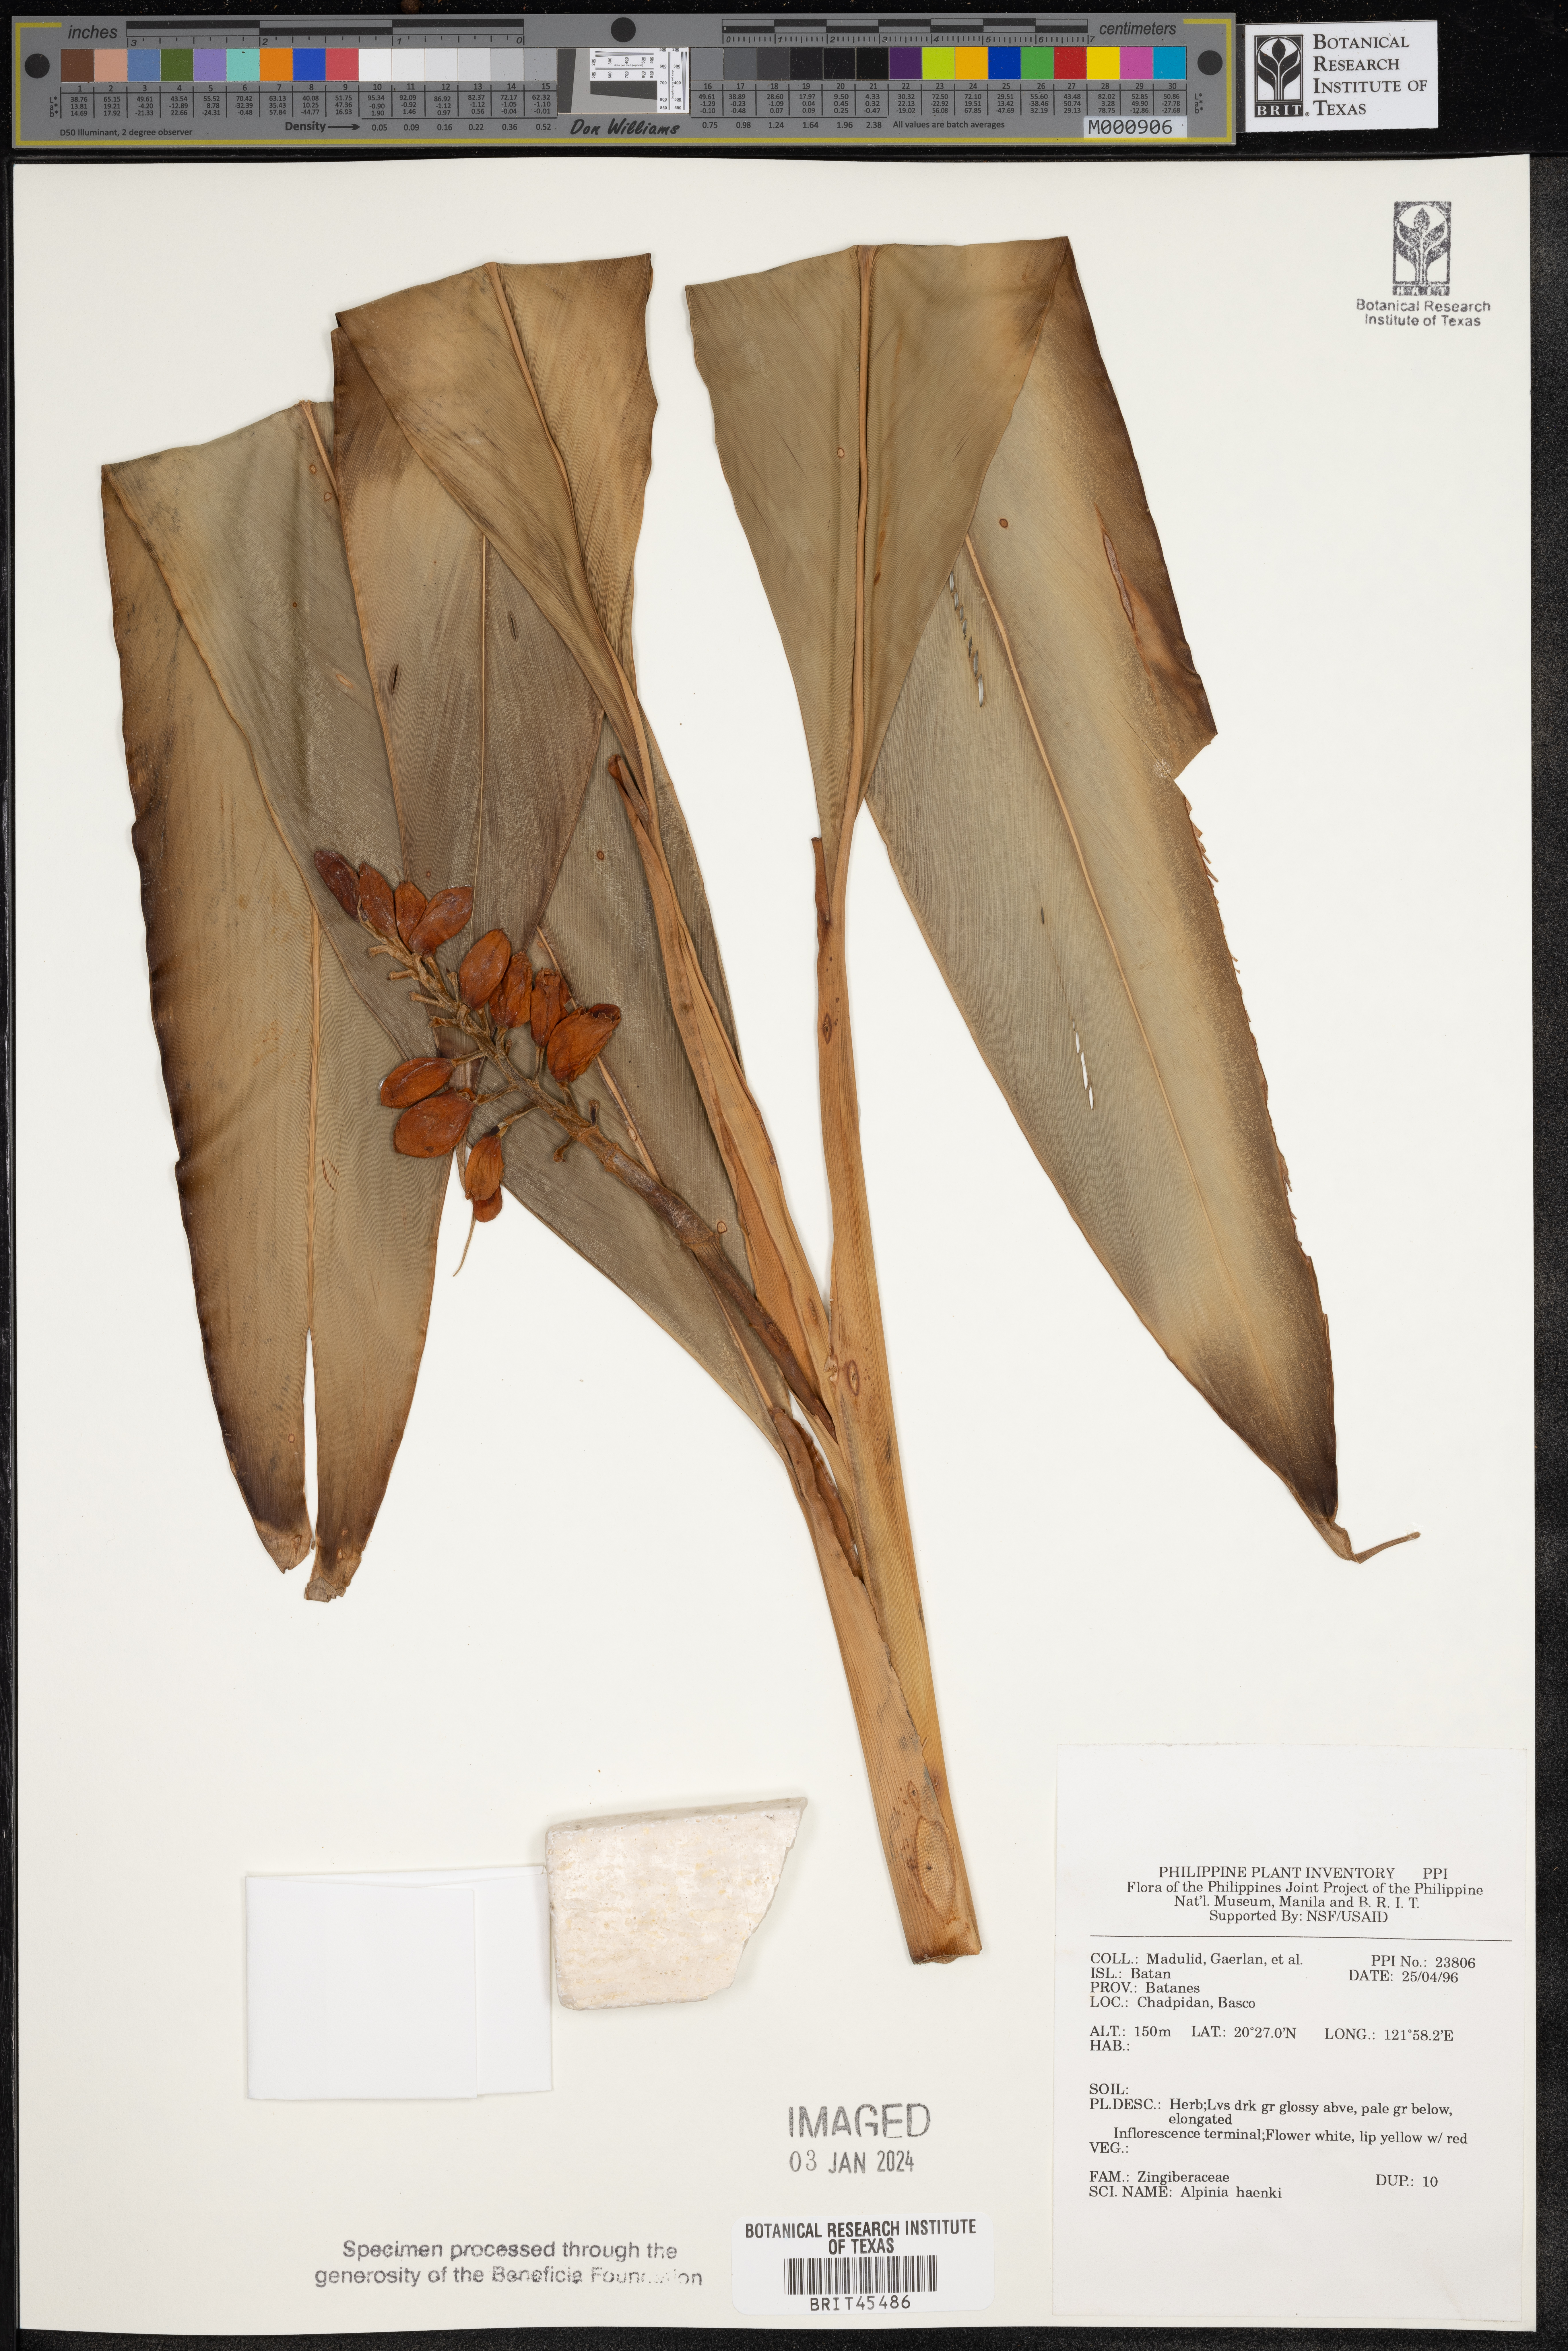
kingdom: Plantae
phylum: Tracheophyta
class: Liliopsida
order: Zingiberales
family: Zingiberaceae
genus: Alpinia
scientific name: Alpinia haenkei
